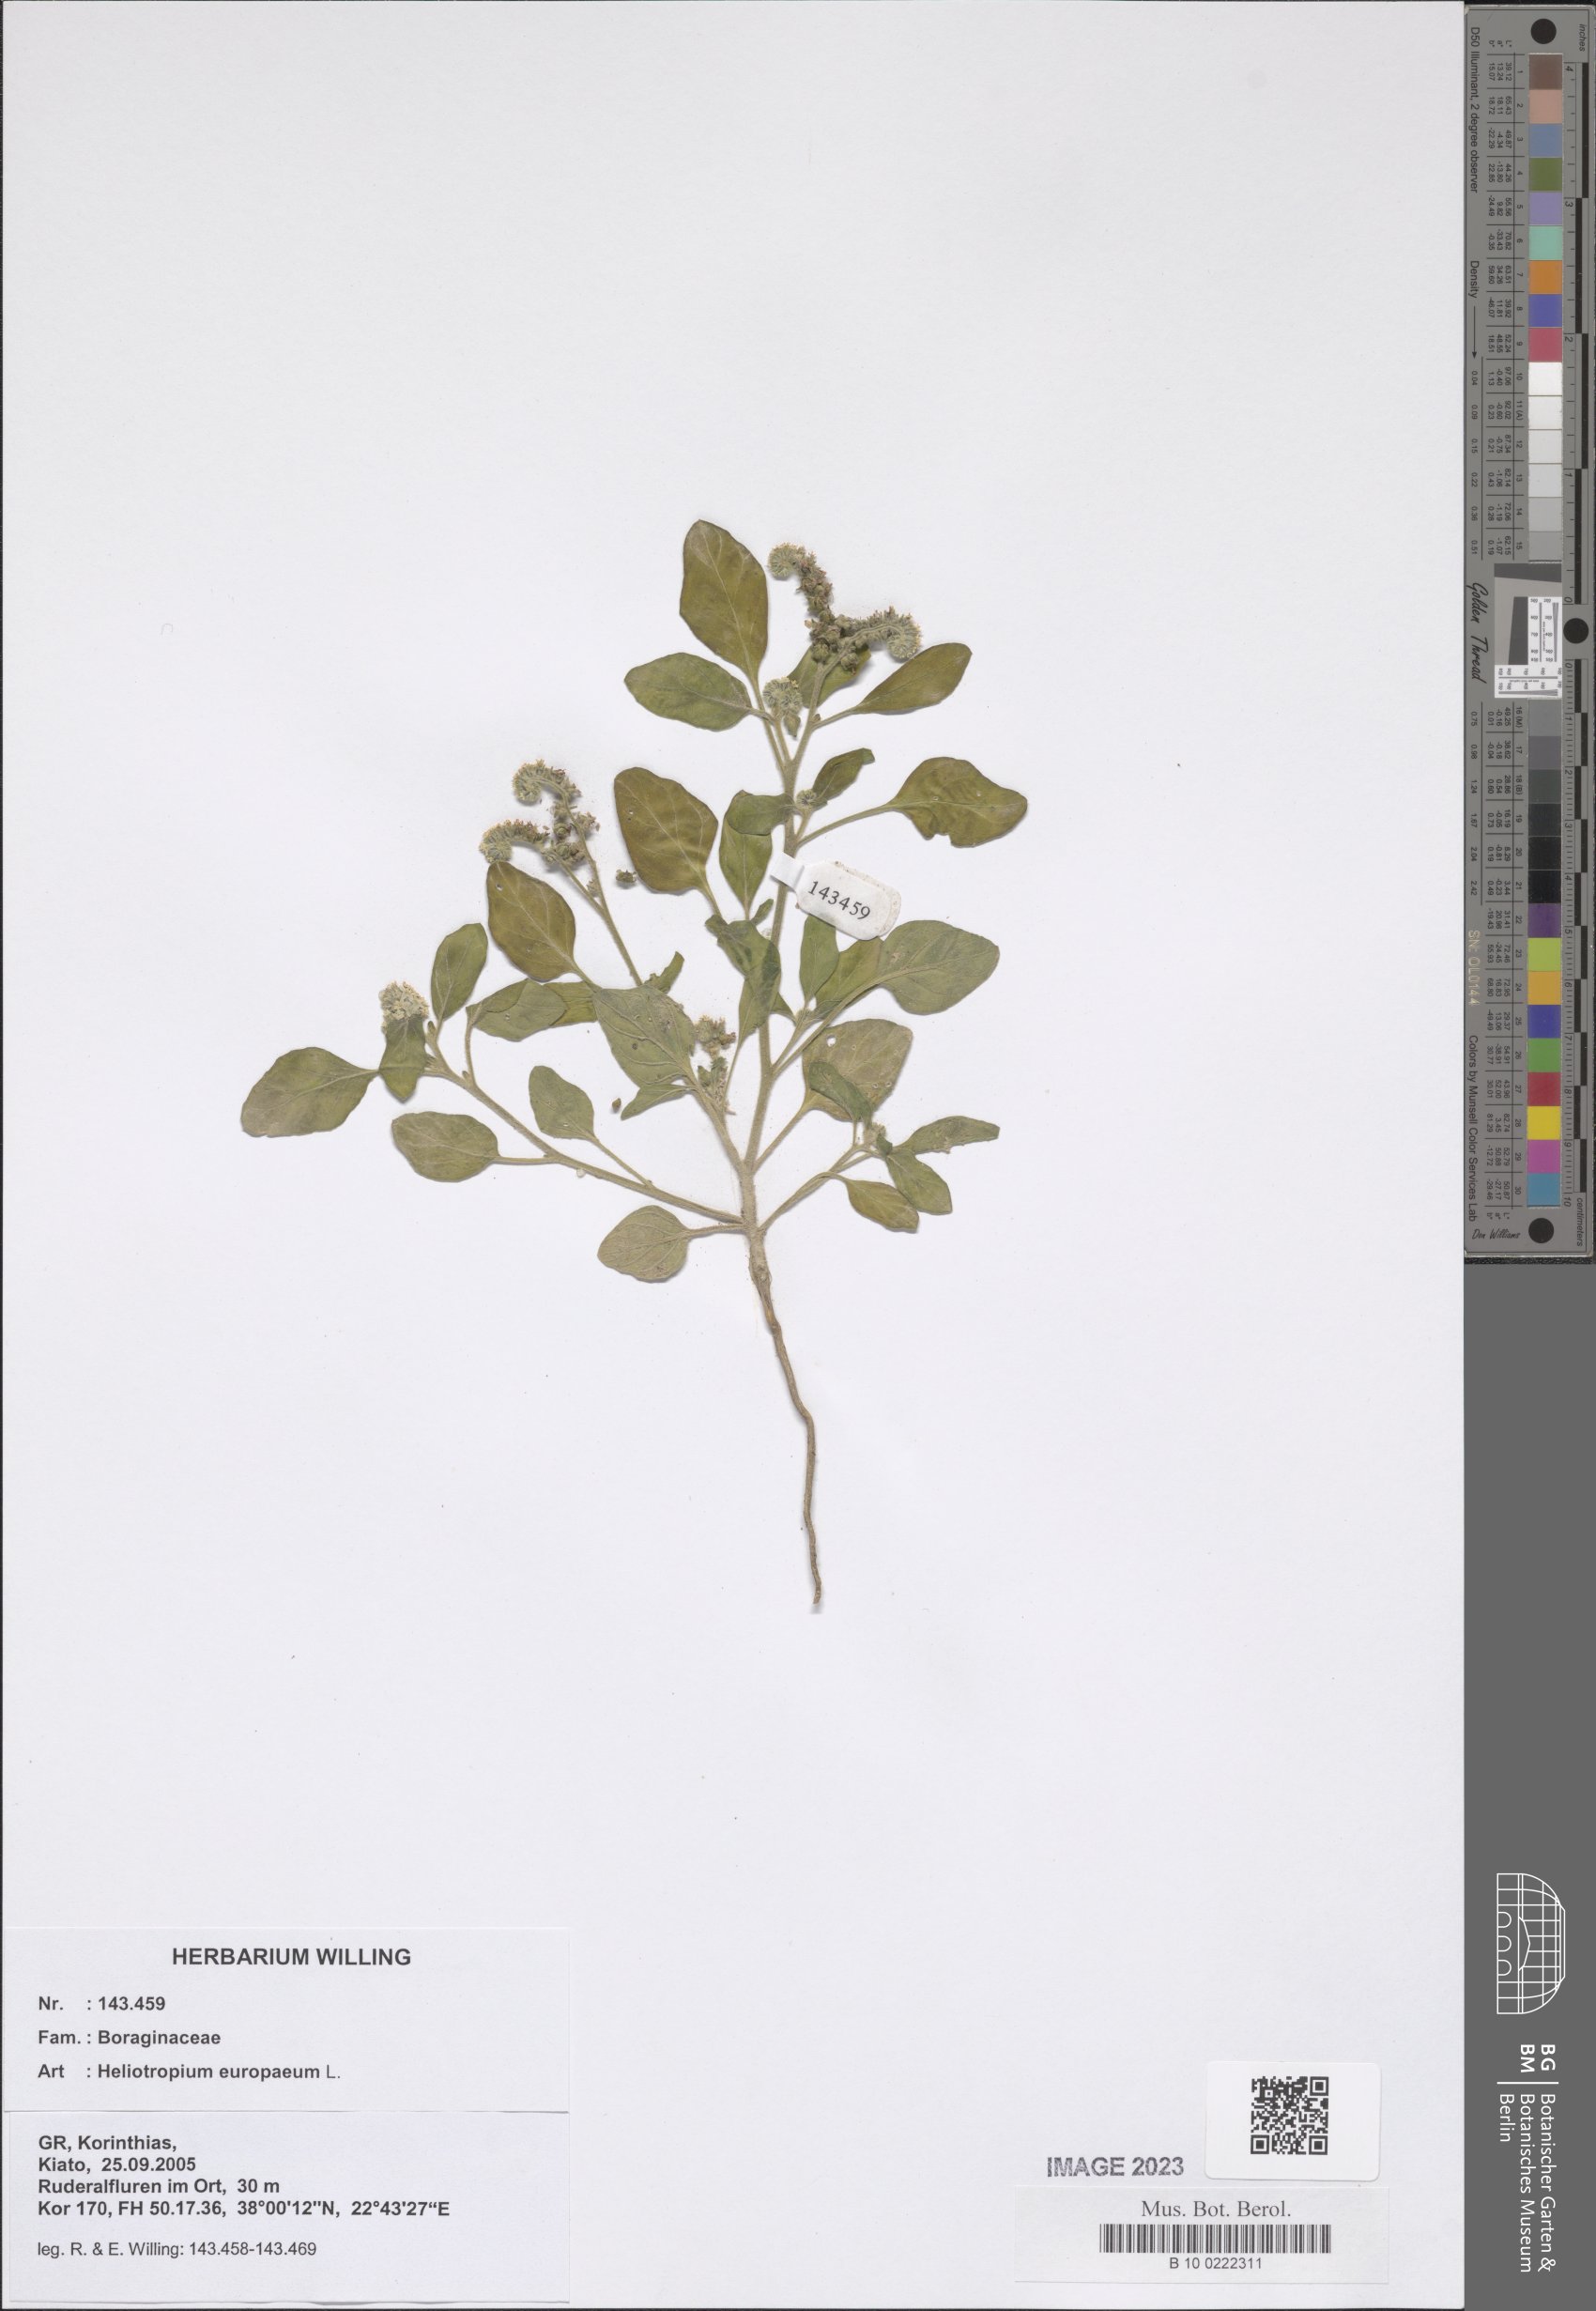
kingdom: Plantae
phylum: Tracheophyta
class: Magnoliopsida
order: Boraginales
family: Heliotropiaceae
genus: Heliotropium
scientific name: Heliotropium europaeum
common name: European heliotrope
